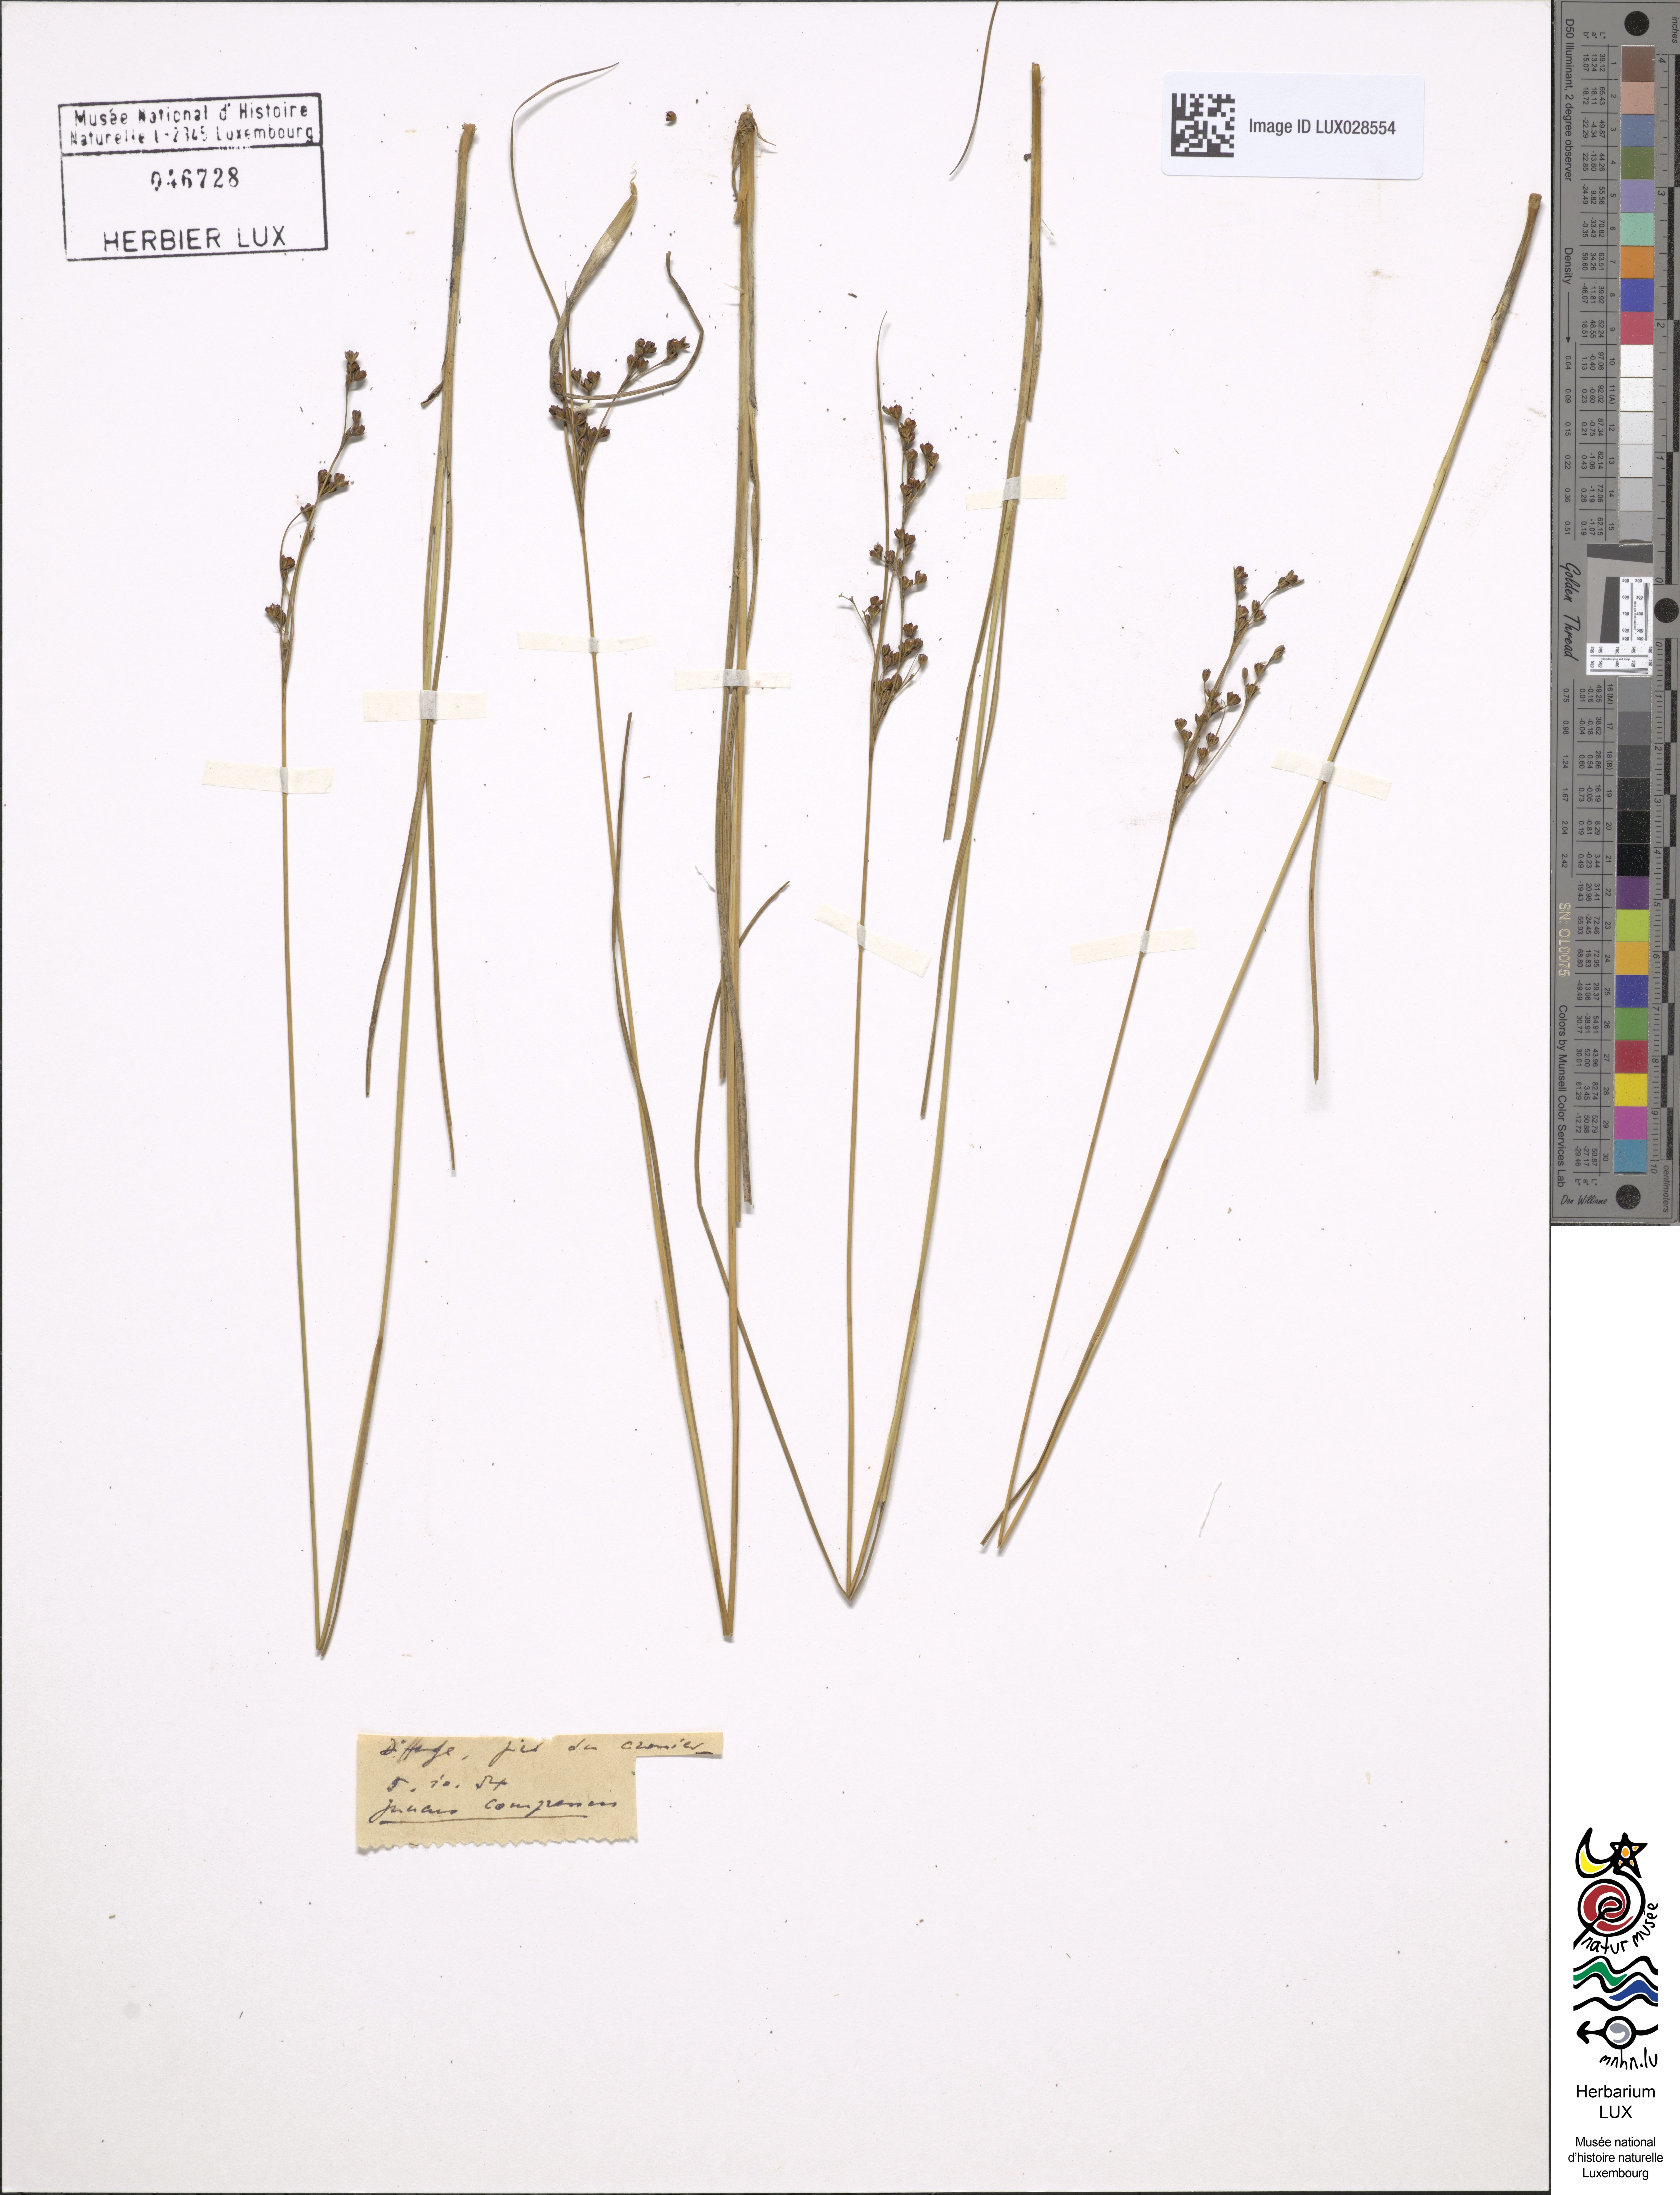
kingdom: Plantae
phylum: Tracheophyta
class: Liliopsida
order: Poales
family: Juncaceae
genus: Juncus
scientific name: Juncus compressus
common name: Round-fruited rush
